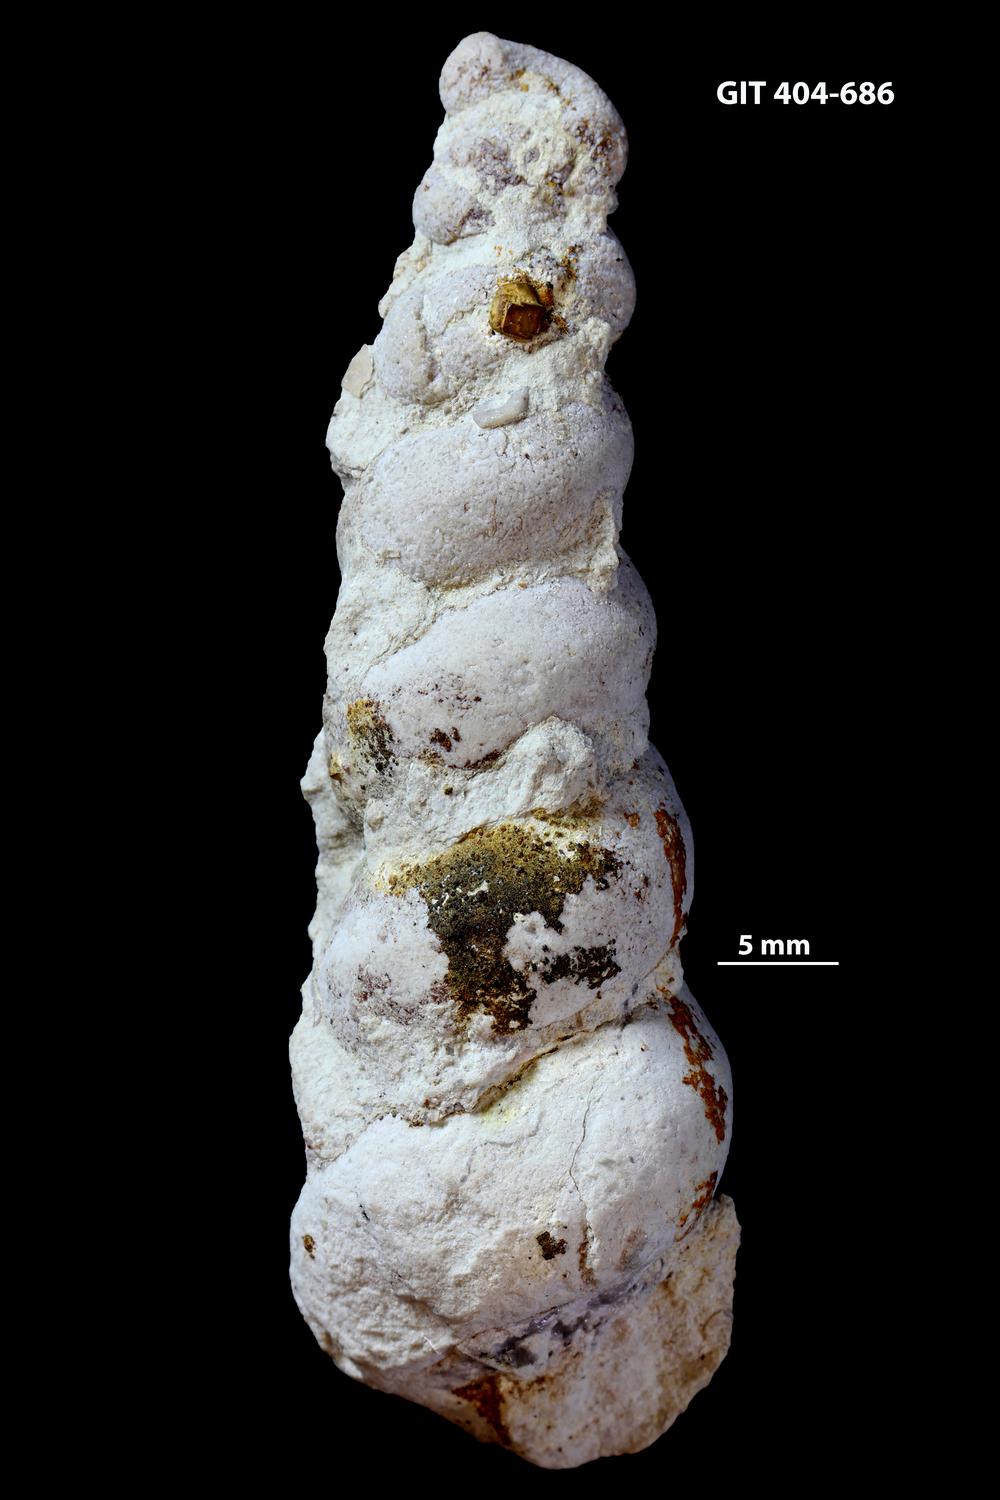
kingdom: Animalia
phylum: Mollusca
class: Gastropoda
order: Pleurotomariida
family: Murchisoniidae
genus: Murchisonia
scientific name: Murchisonia scrobiculata
